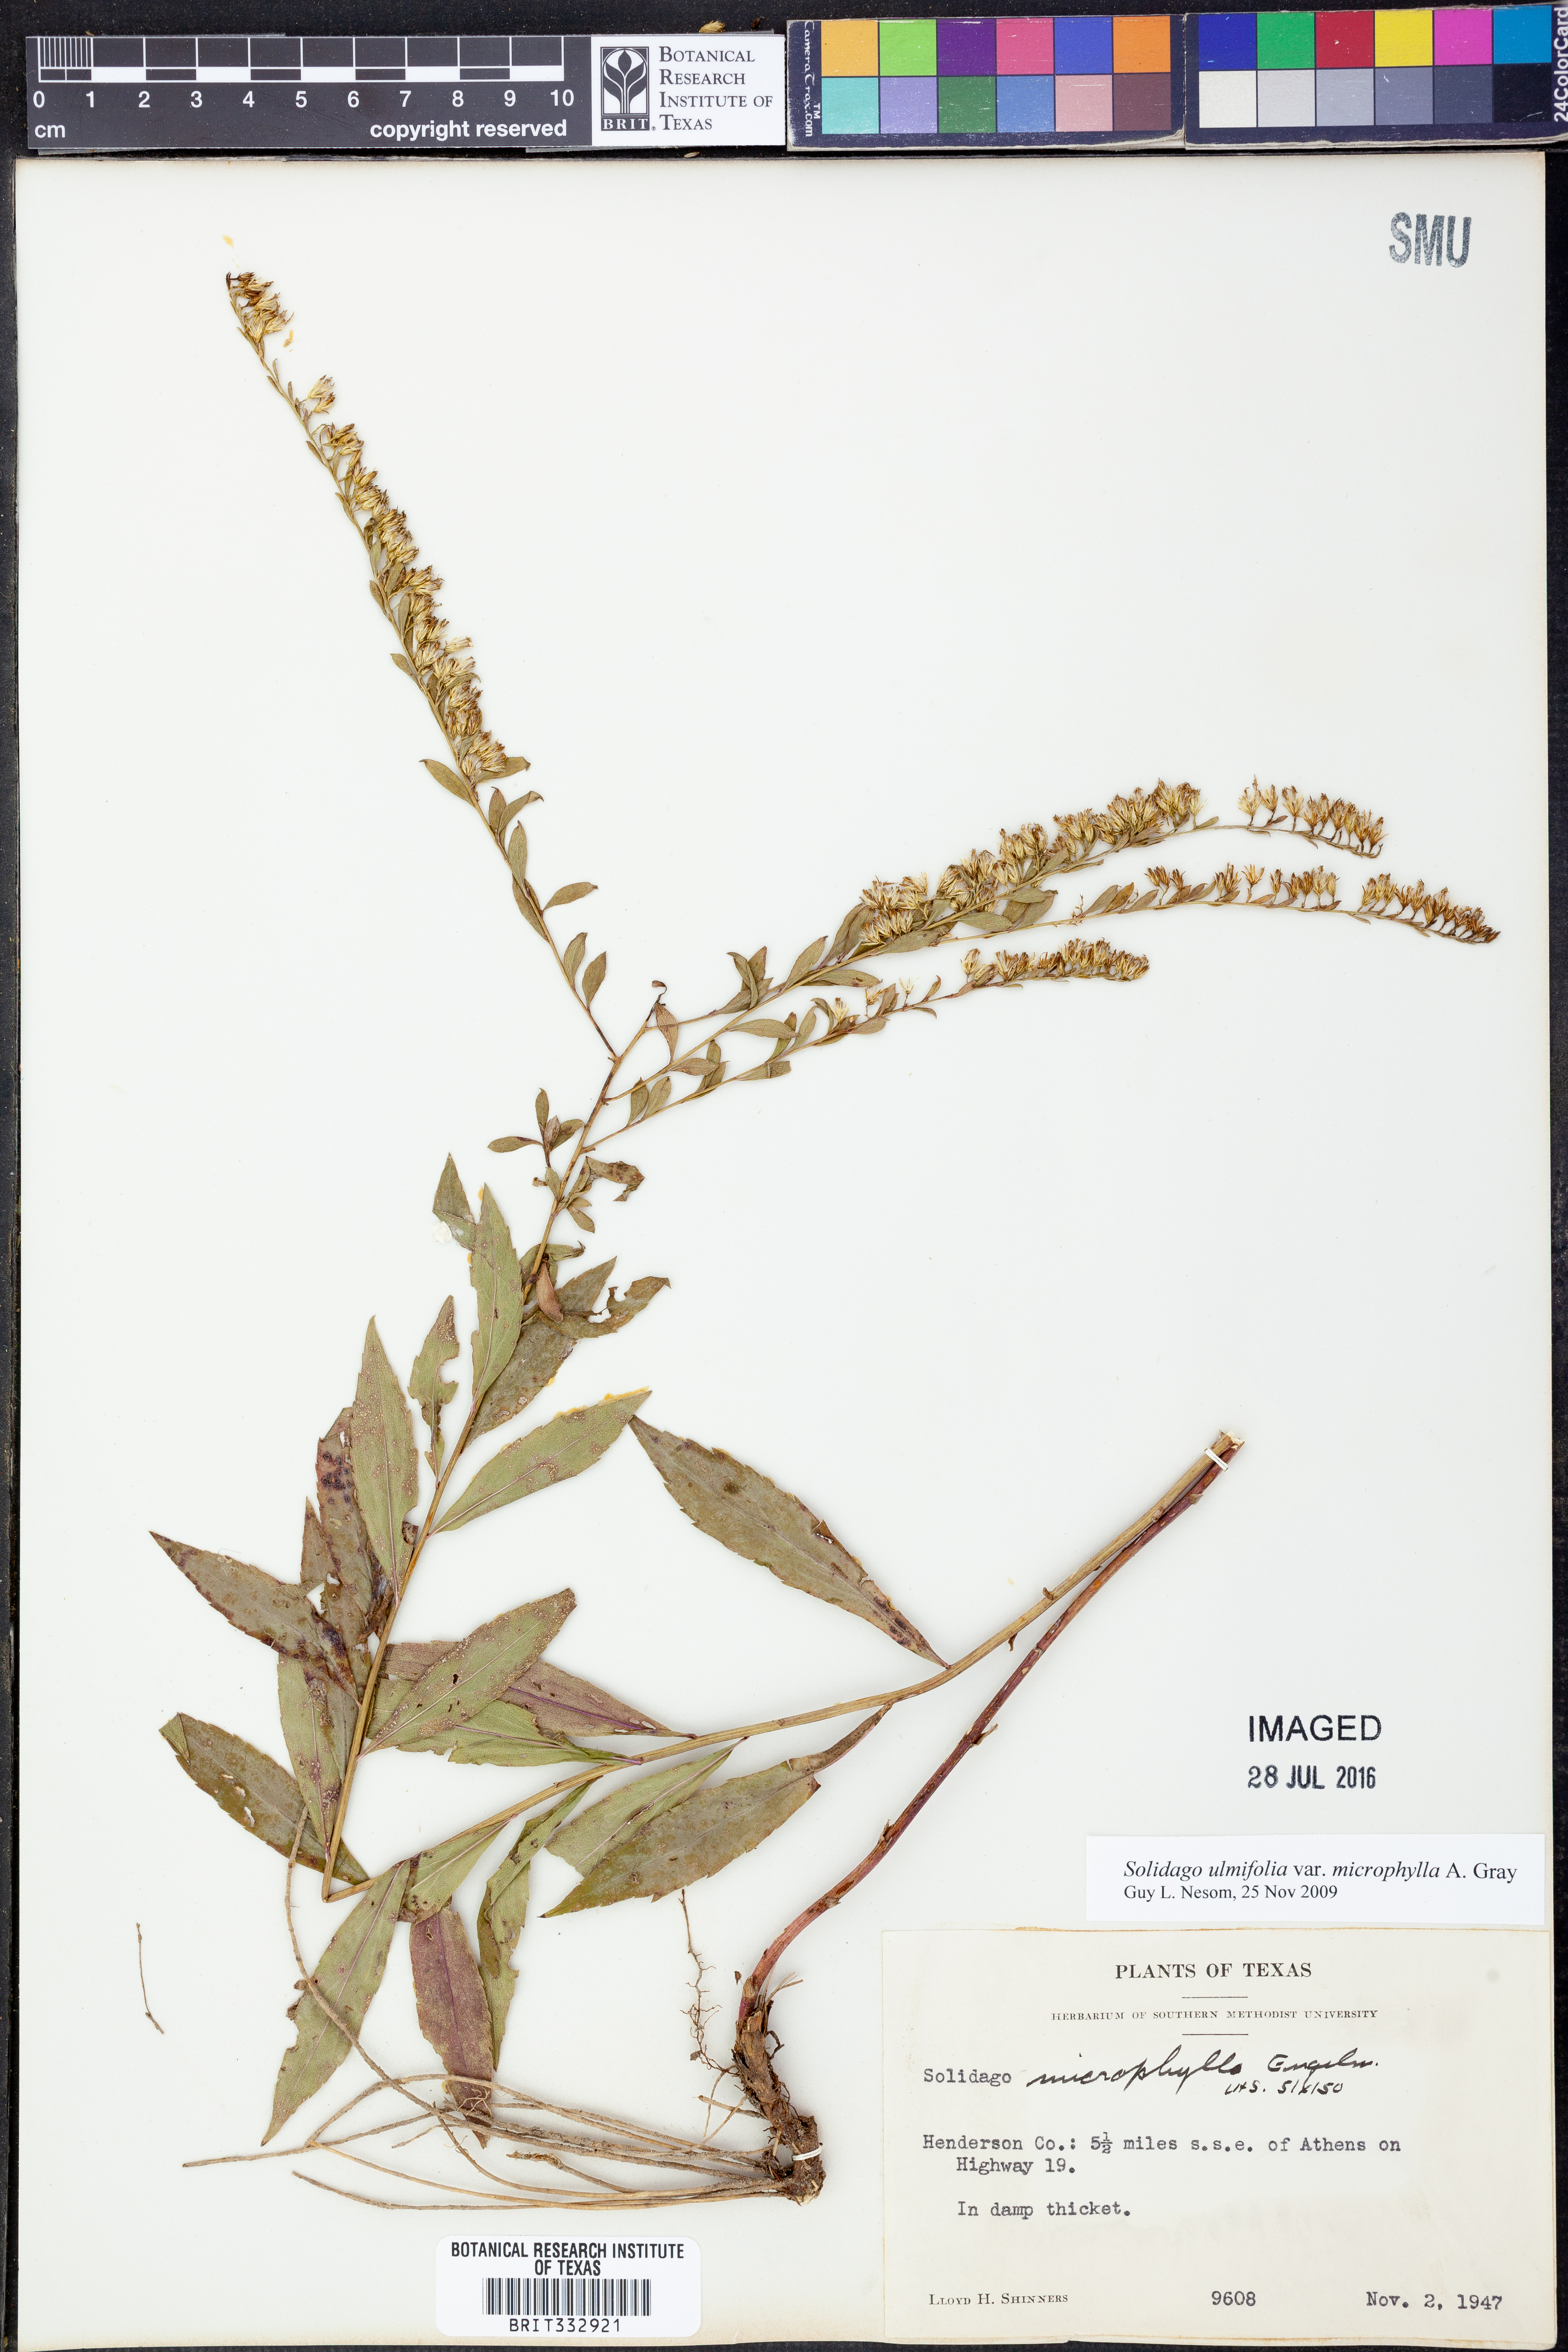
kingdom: Plantae
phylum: Tracheophyta
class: Magnoliopsida
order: Asterales
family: Asteraceae
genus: Solidago
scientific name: Solidago delicatula
